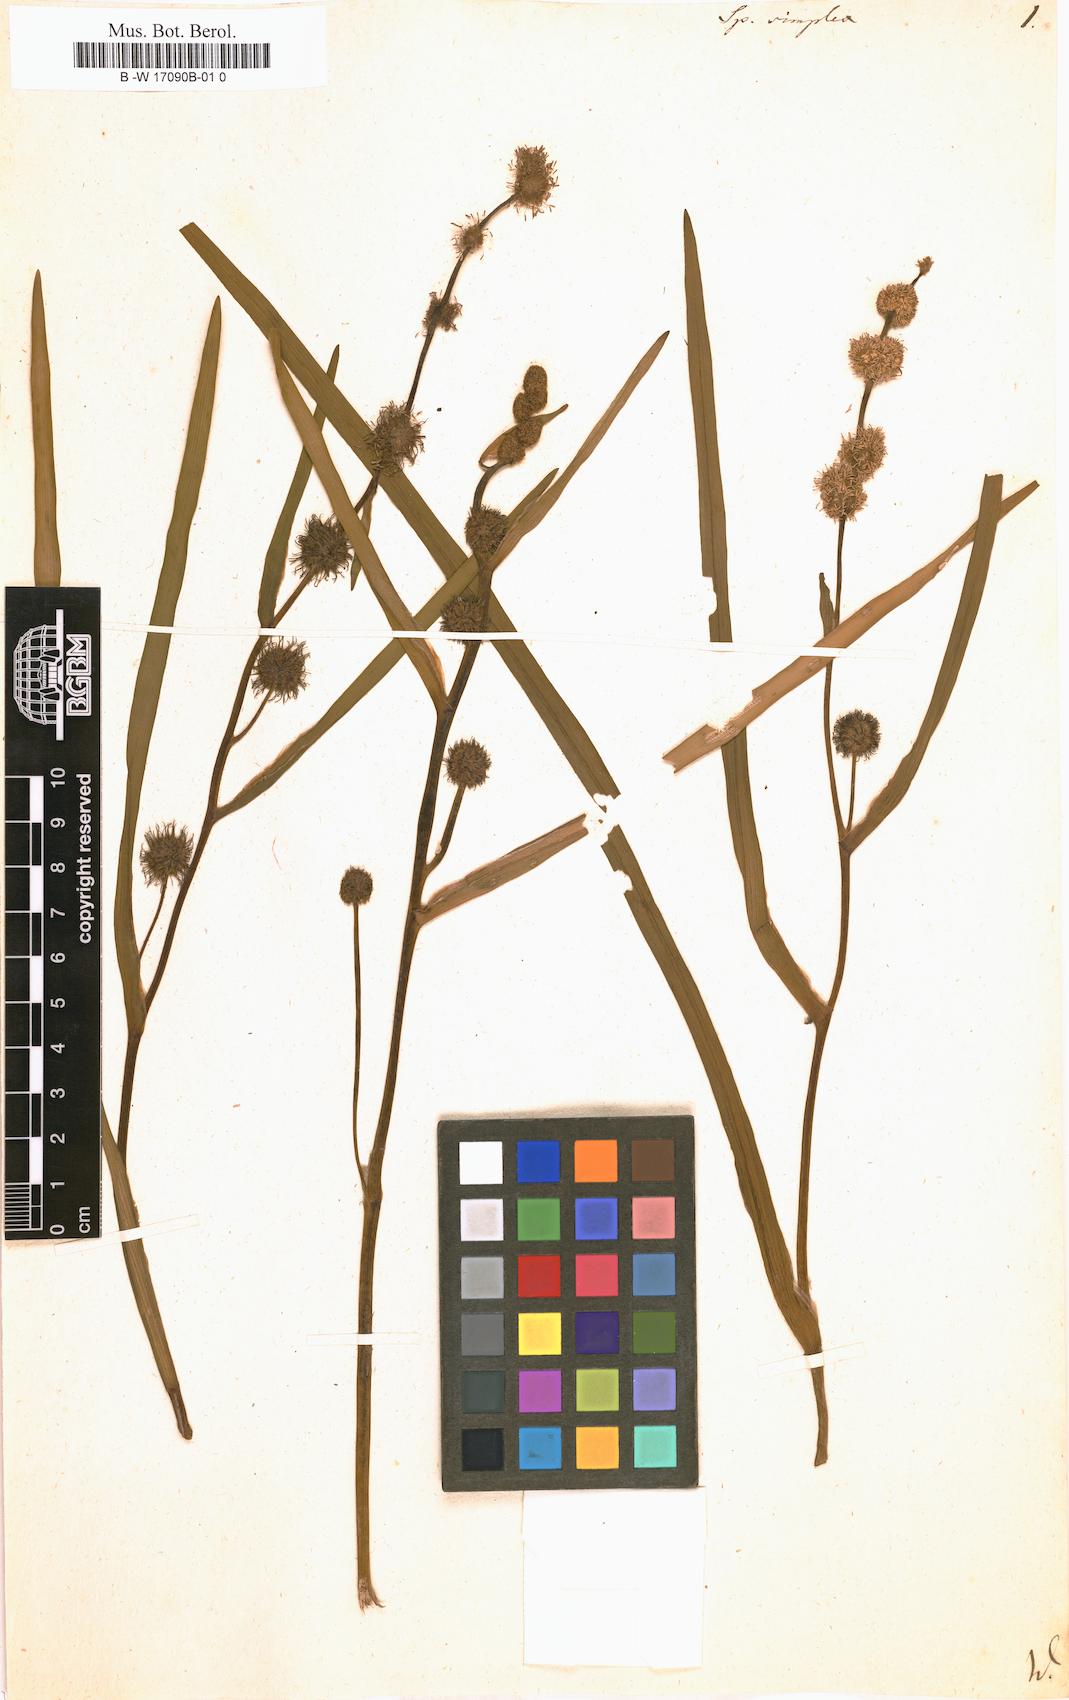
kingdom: Plantae
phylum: Tracheophyta
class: Liliopsida
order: Poales
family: Typhaceae
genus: Sparganium
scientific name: Sparganium
